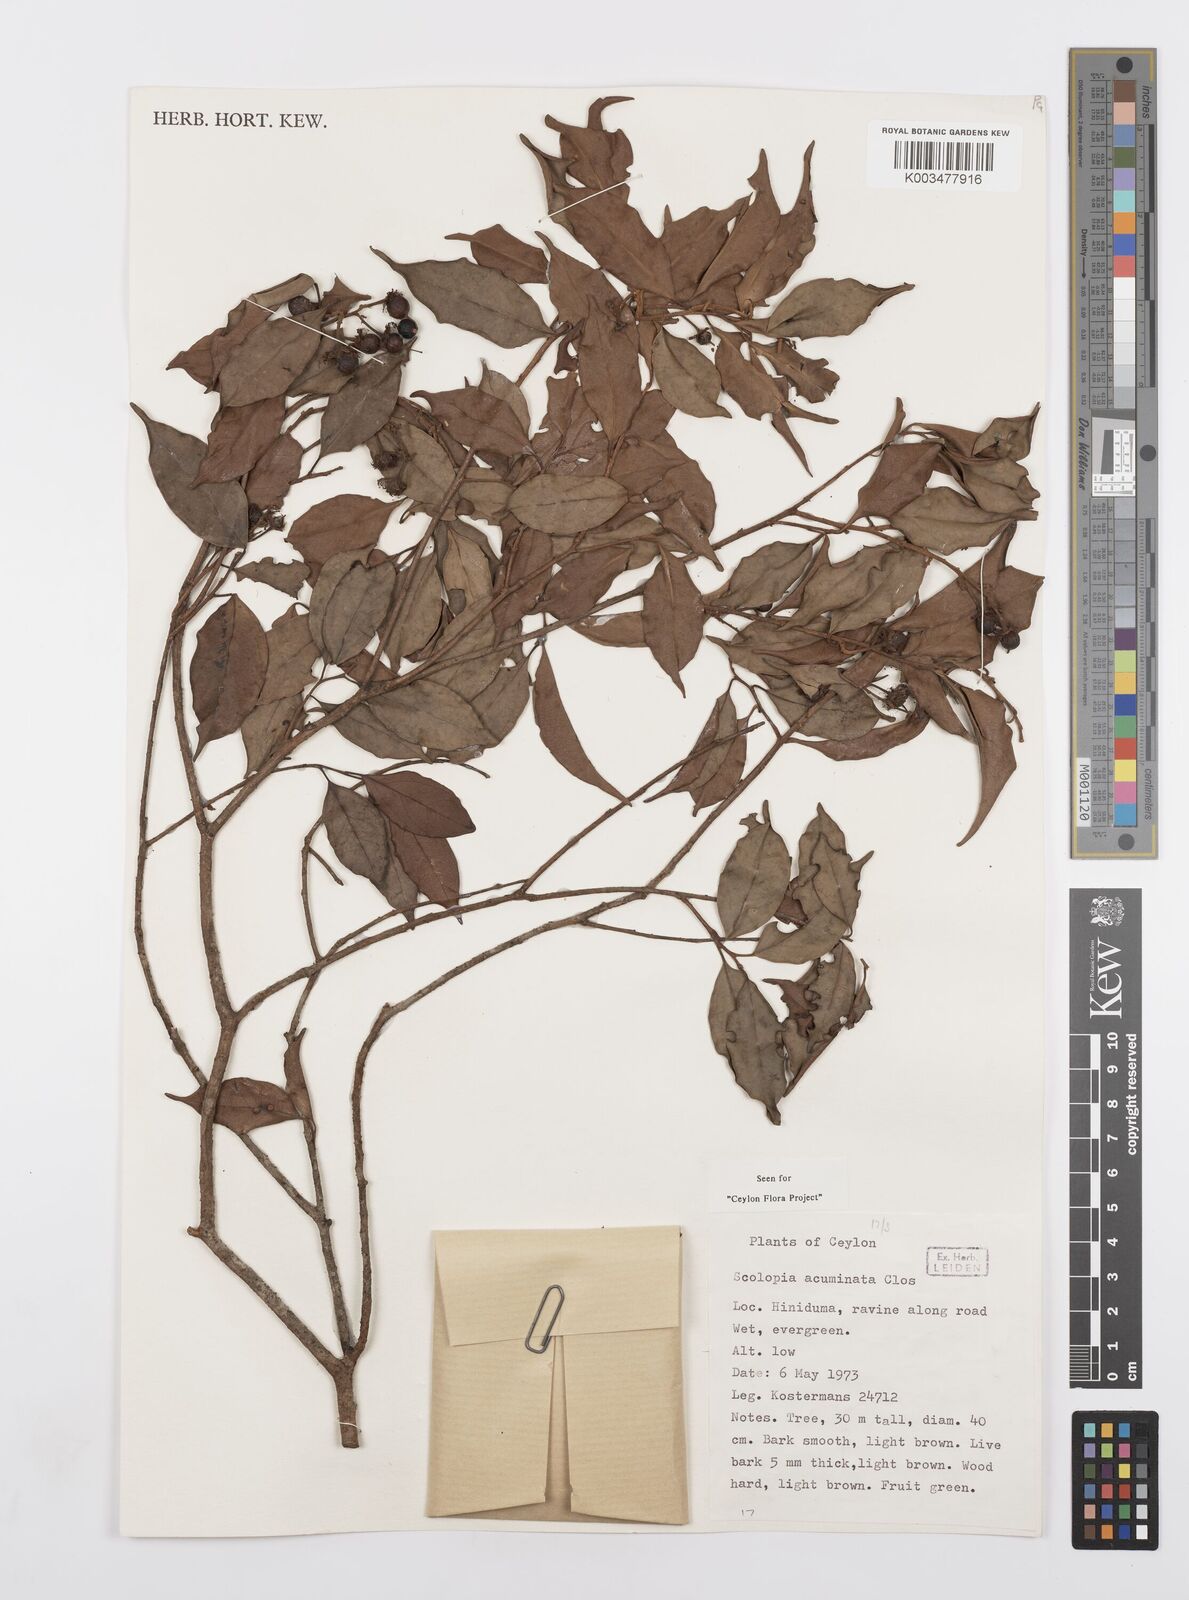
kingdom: Plantae
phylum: Tracheophyta
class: Magnoliopsida
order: Malpighiales
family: Salicaceae
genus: Scolopia
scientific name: Scolopia acuminata
